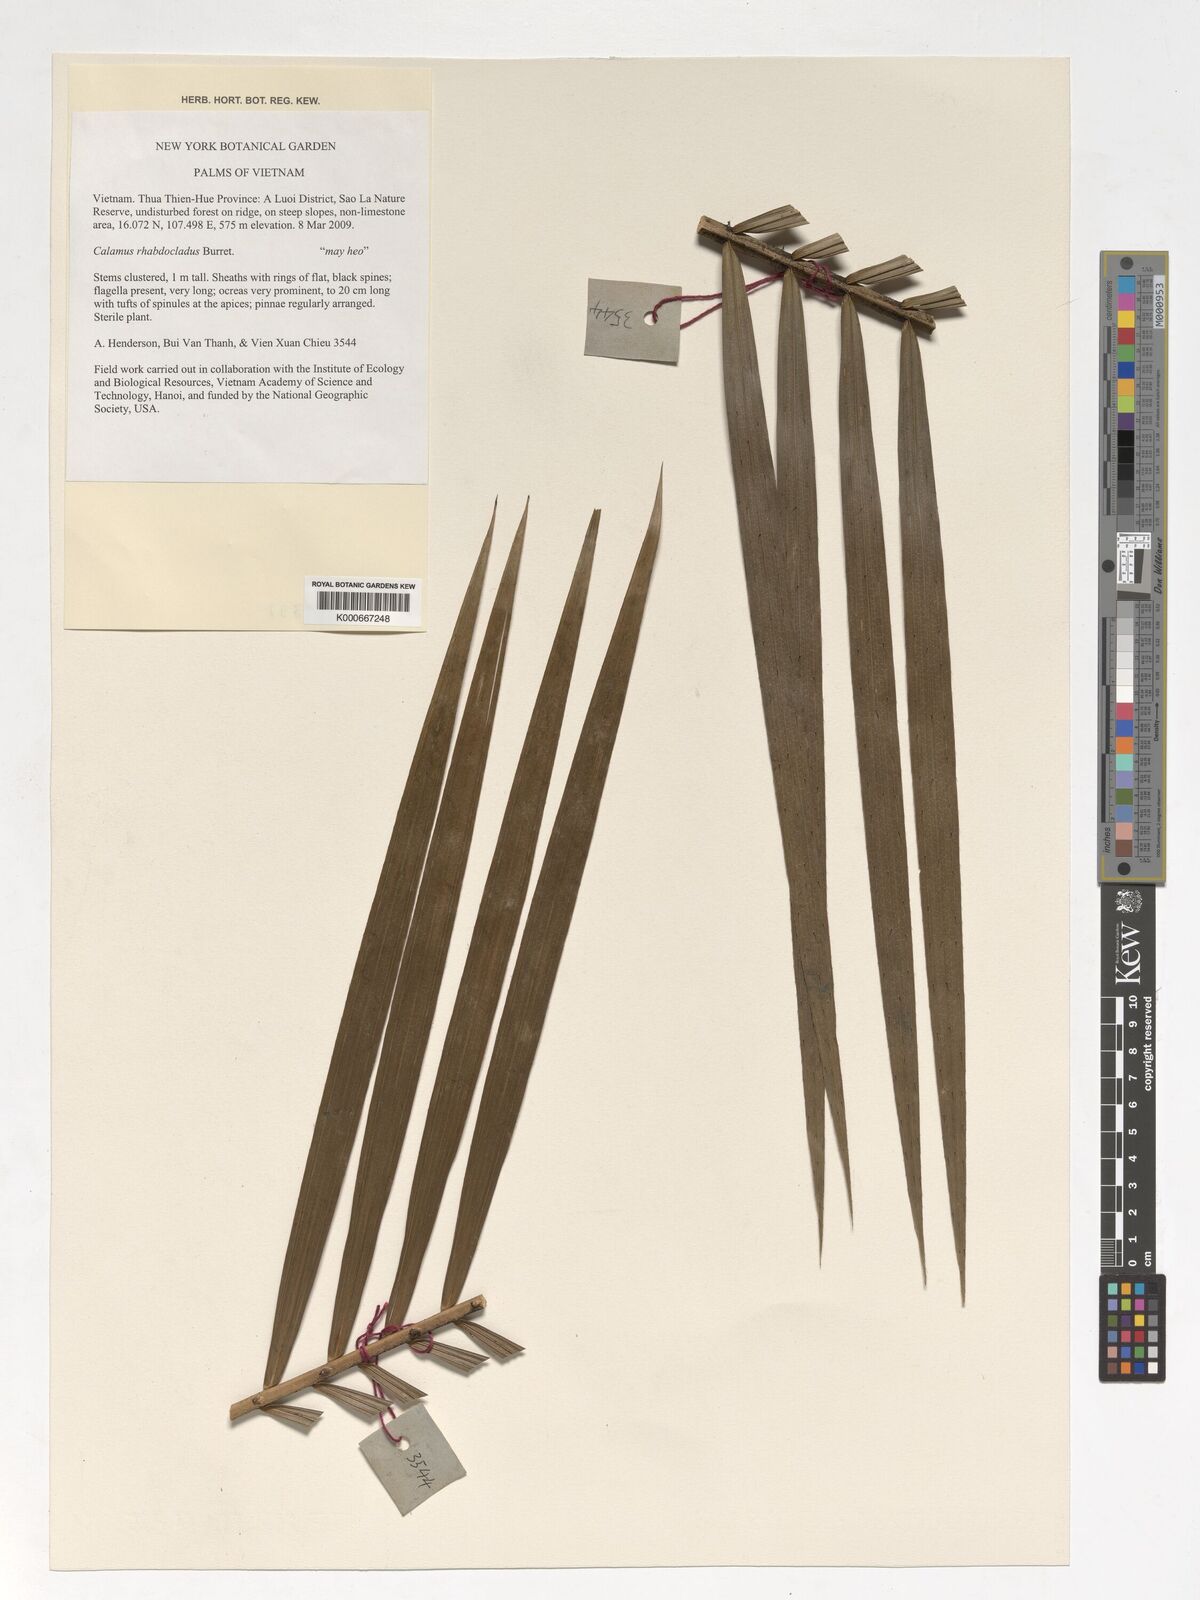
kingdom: Plantae
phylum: Tracheophyta
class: Liliopsida
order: Arecales
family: Arecaceae
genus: Calamus
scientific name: Calamus rhabdocladus
